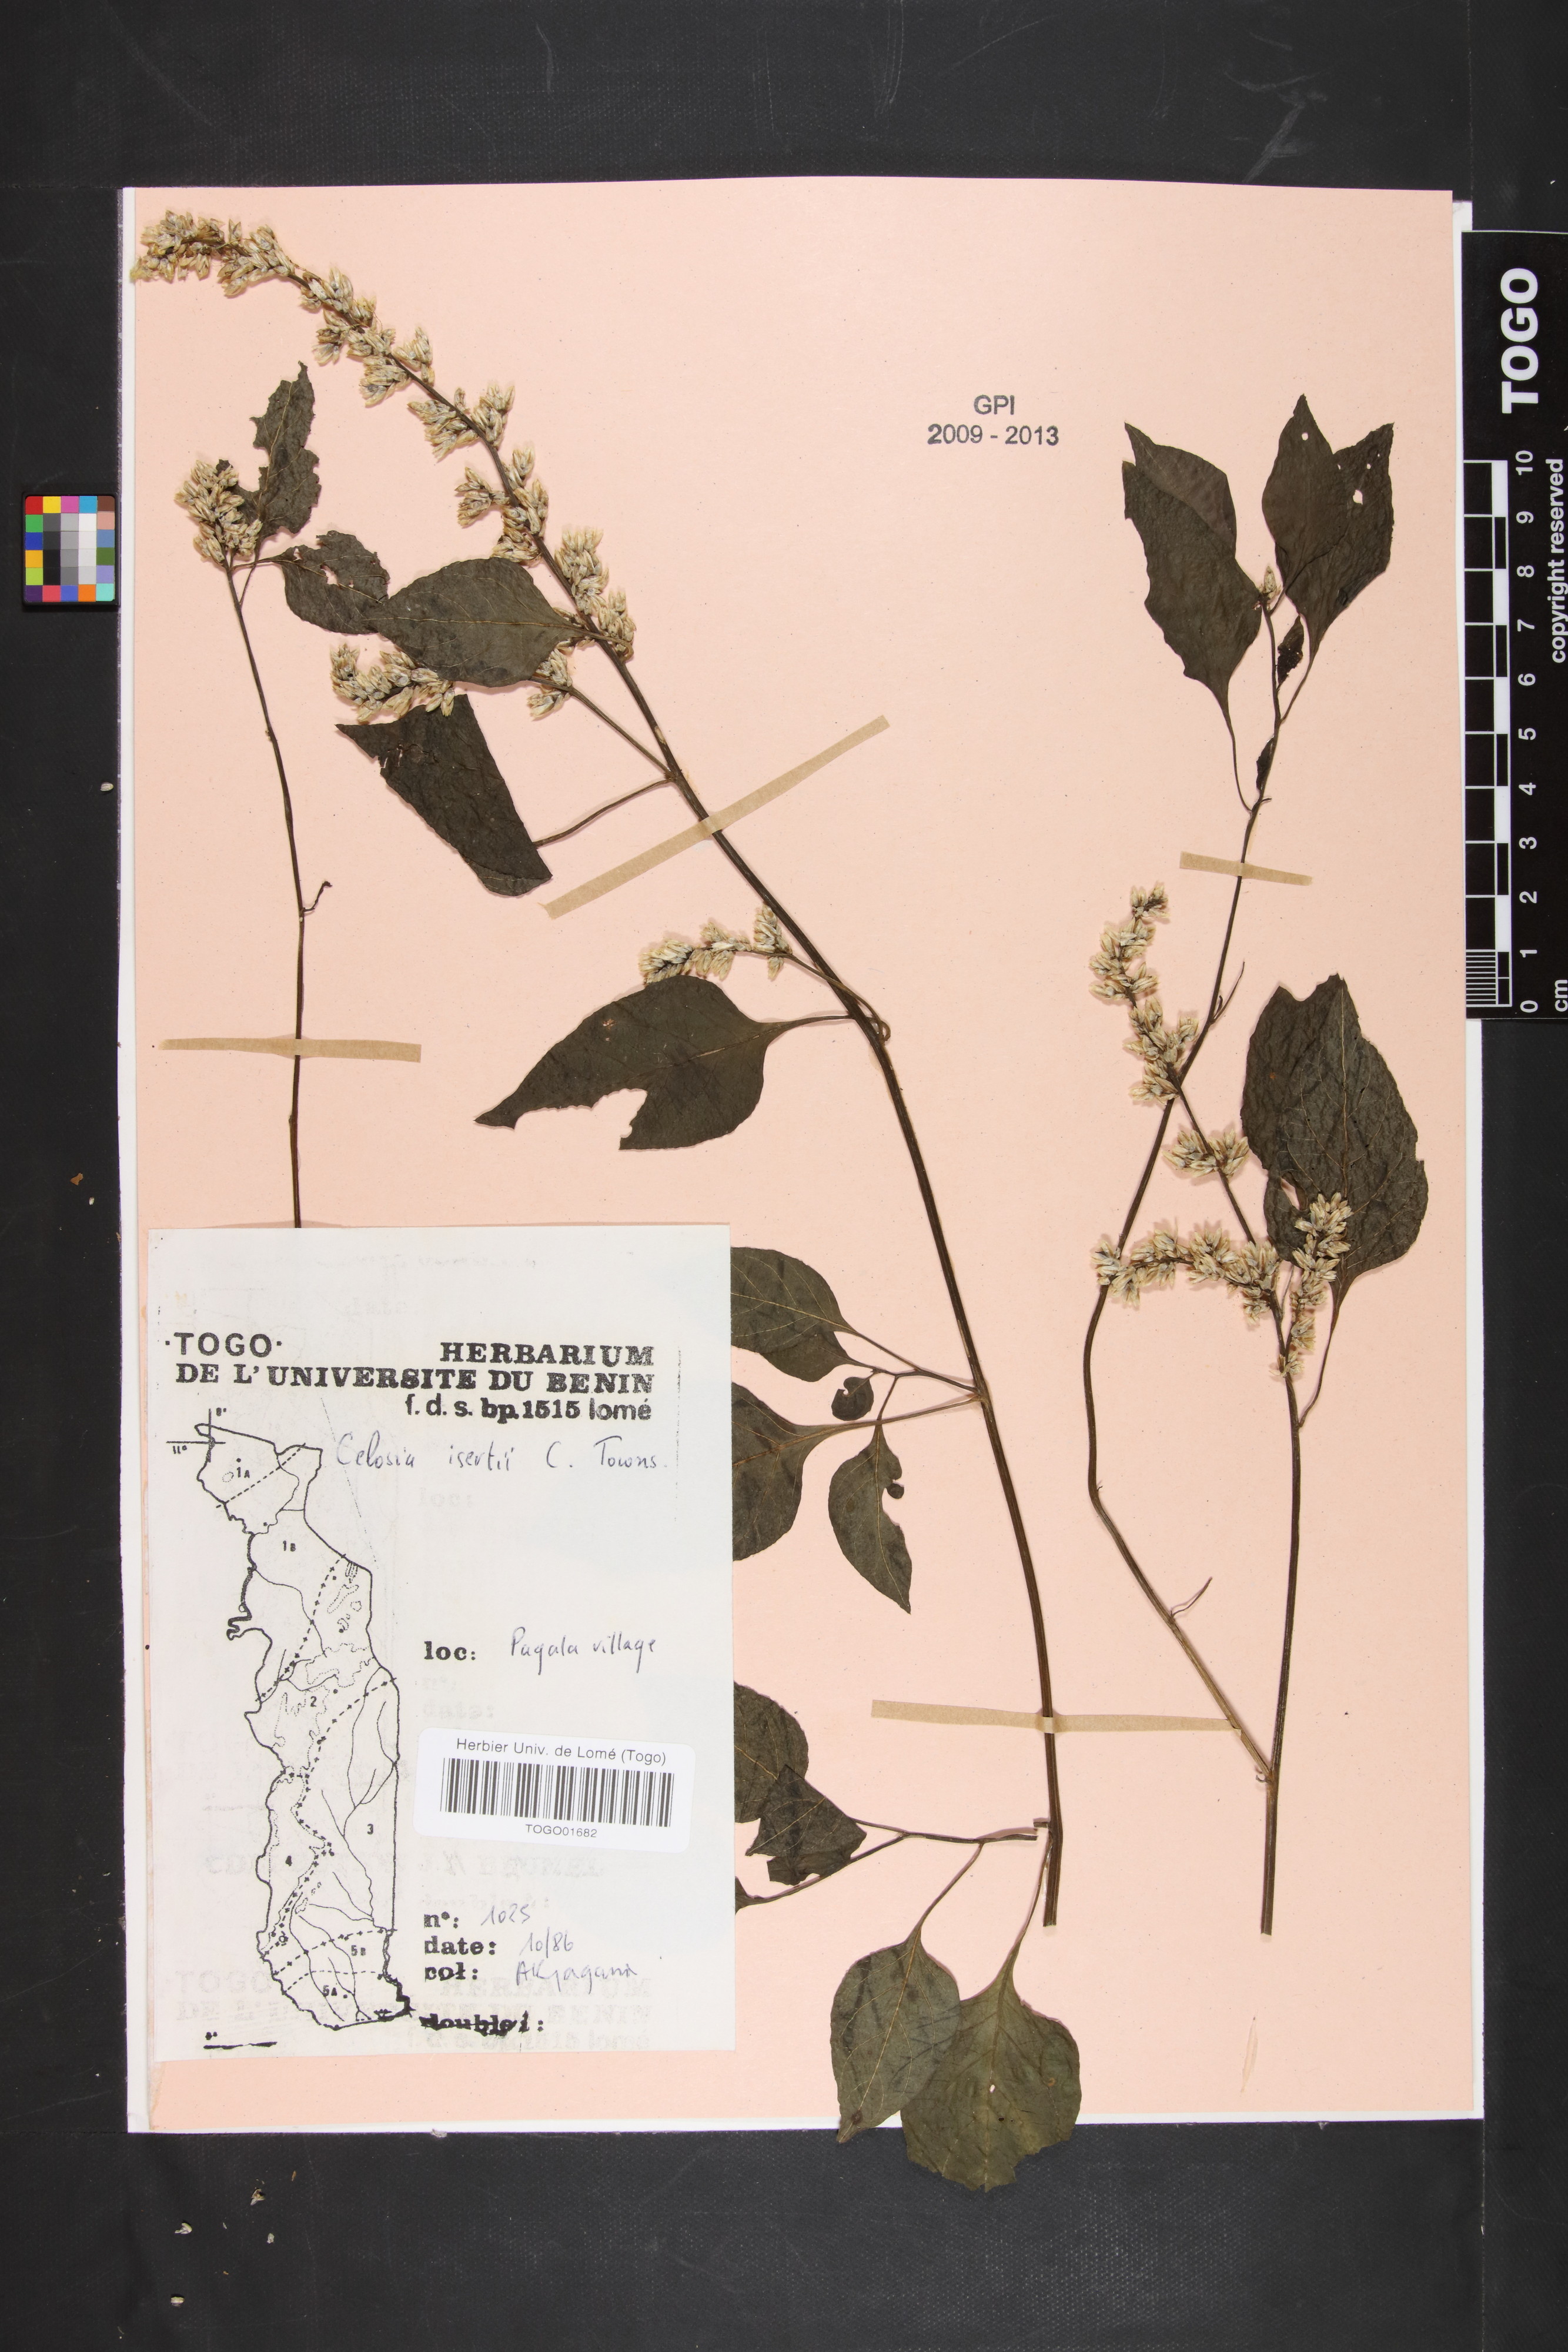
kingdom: Plantae
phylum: Tracheophyta
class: Magnoliopsida
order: Caryophyllales
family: Amaranthaceae
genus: Celosia
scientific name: Celosia isertii
